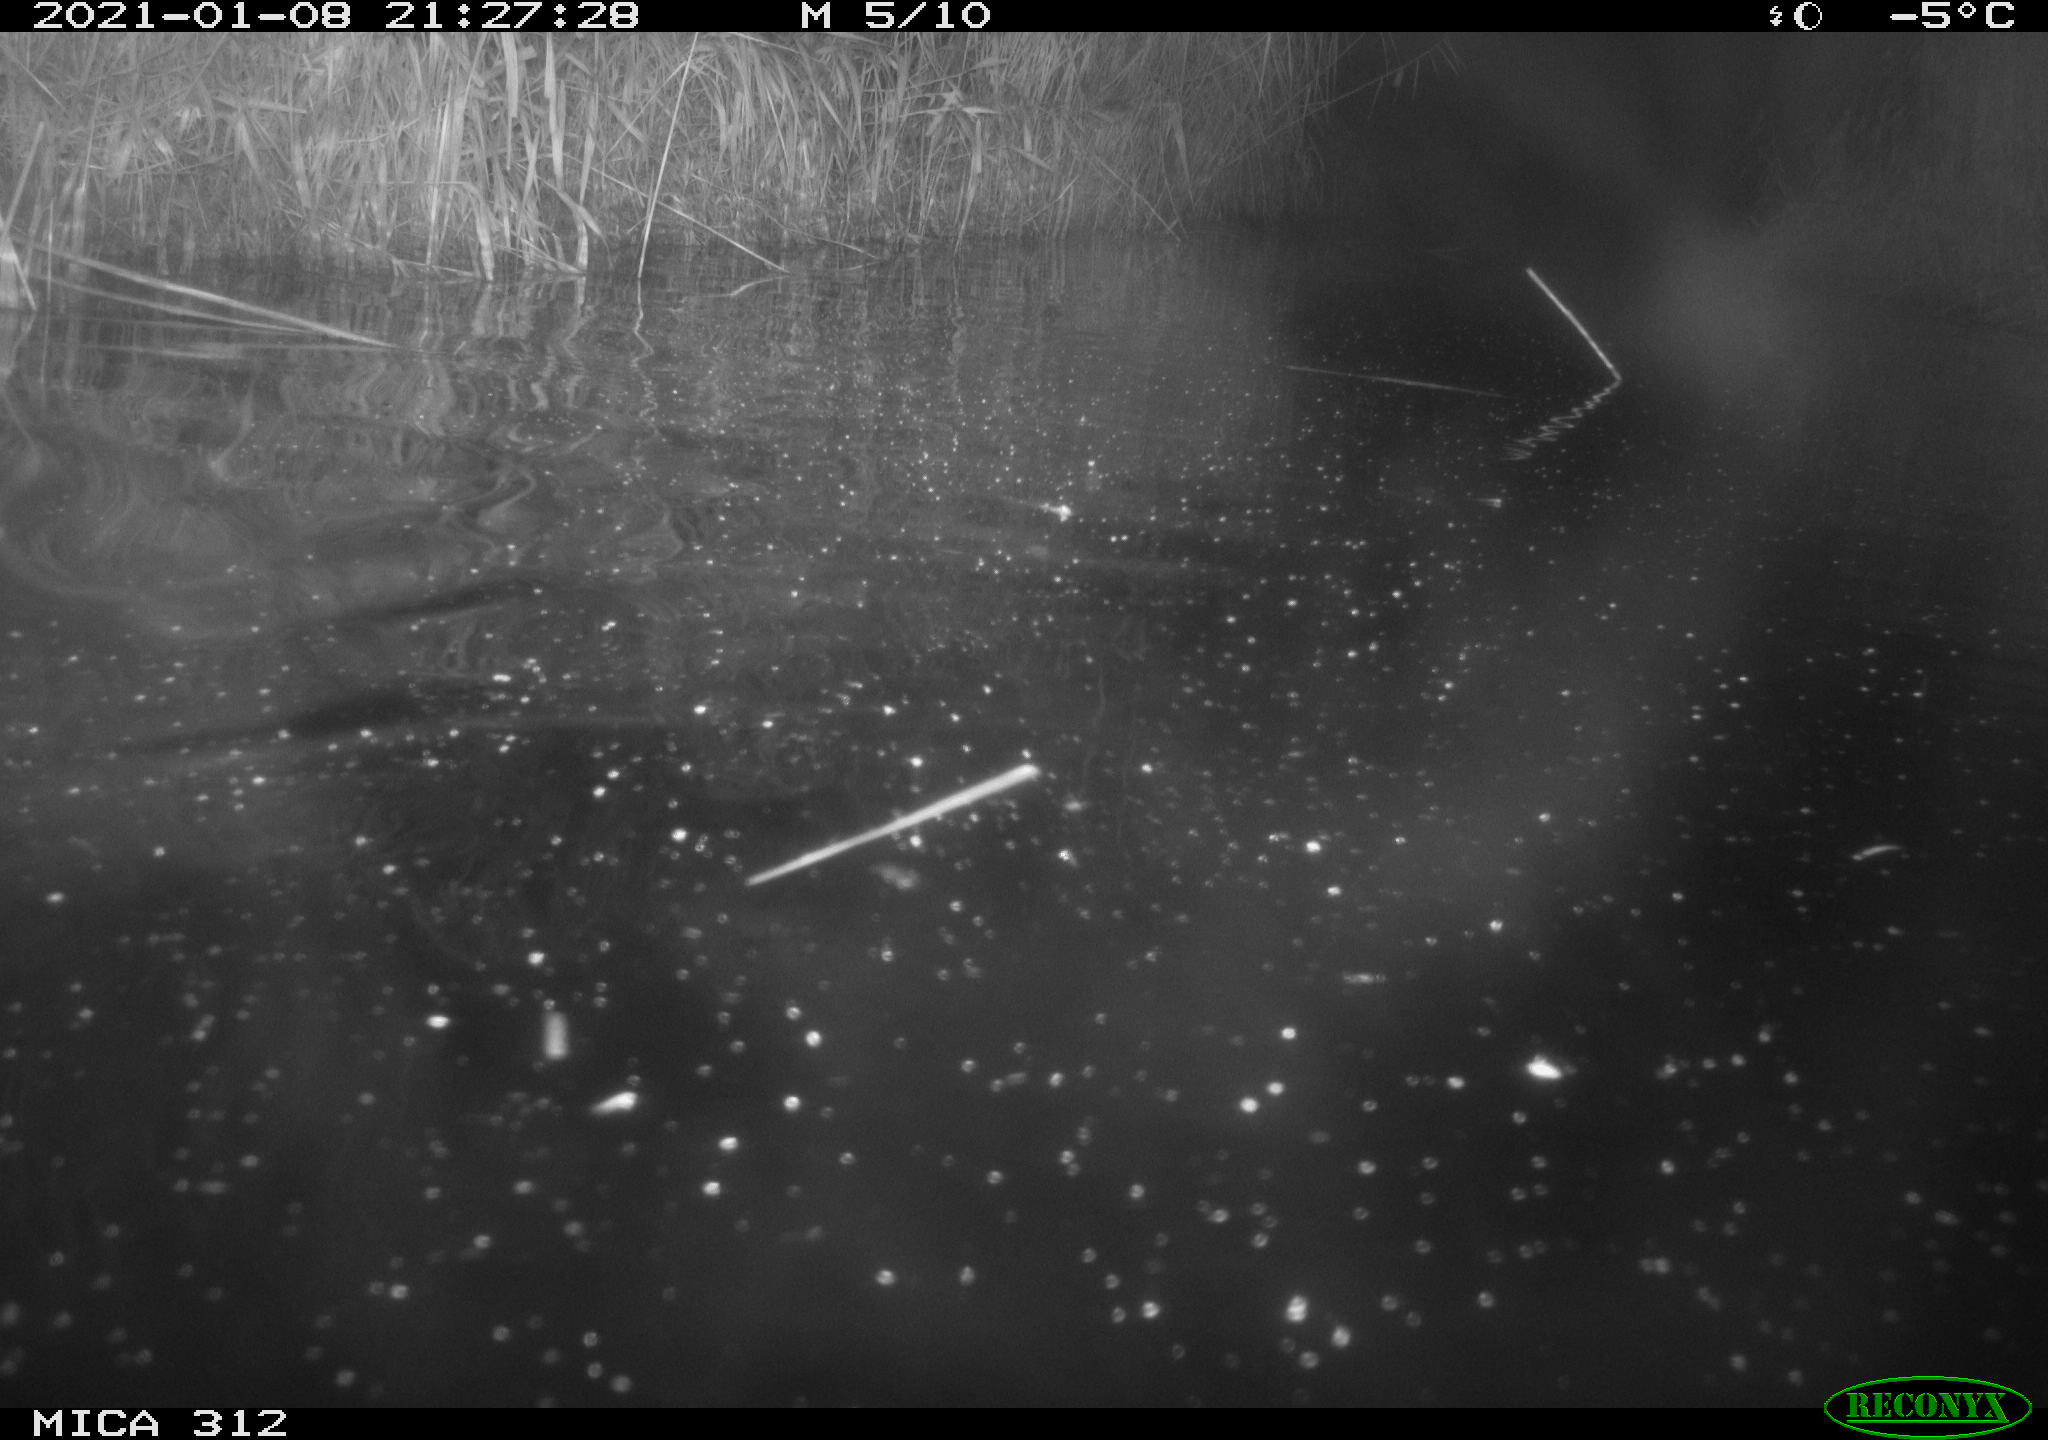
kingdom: Animalia
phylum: Chordata
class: Mammalia
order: Rodentia
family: Cricetidae
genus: Ondatra
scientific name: Ondatra zibethicus
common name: Muskrat
